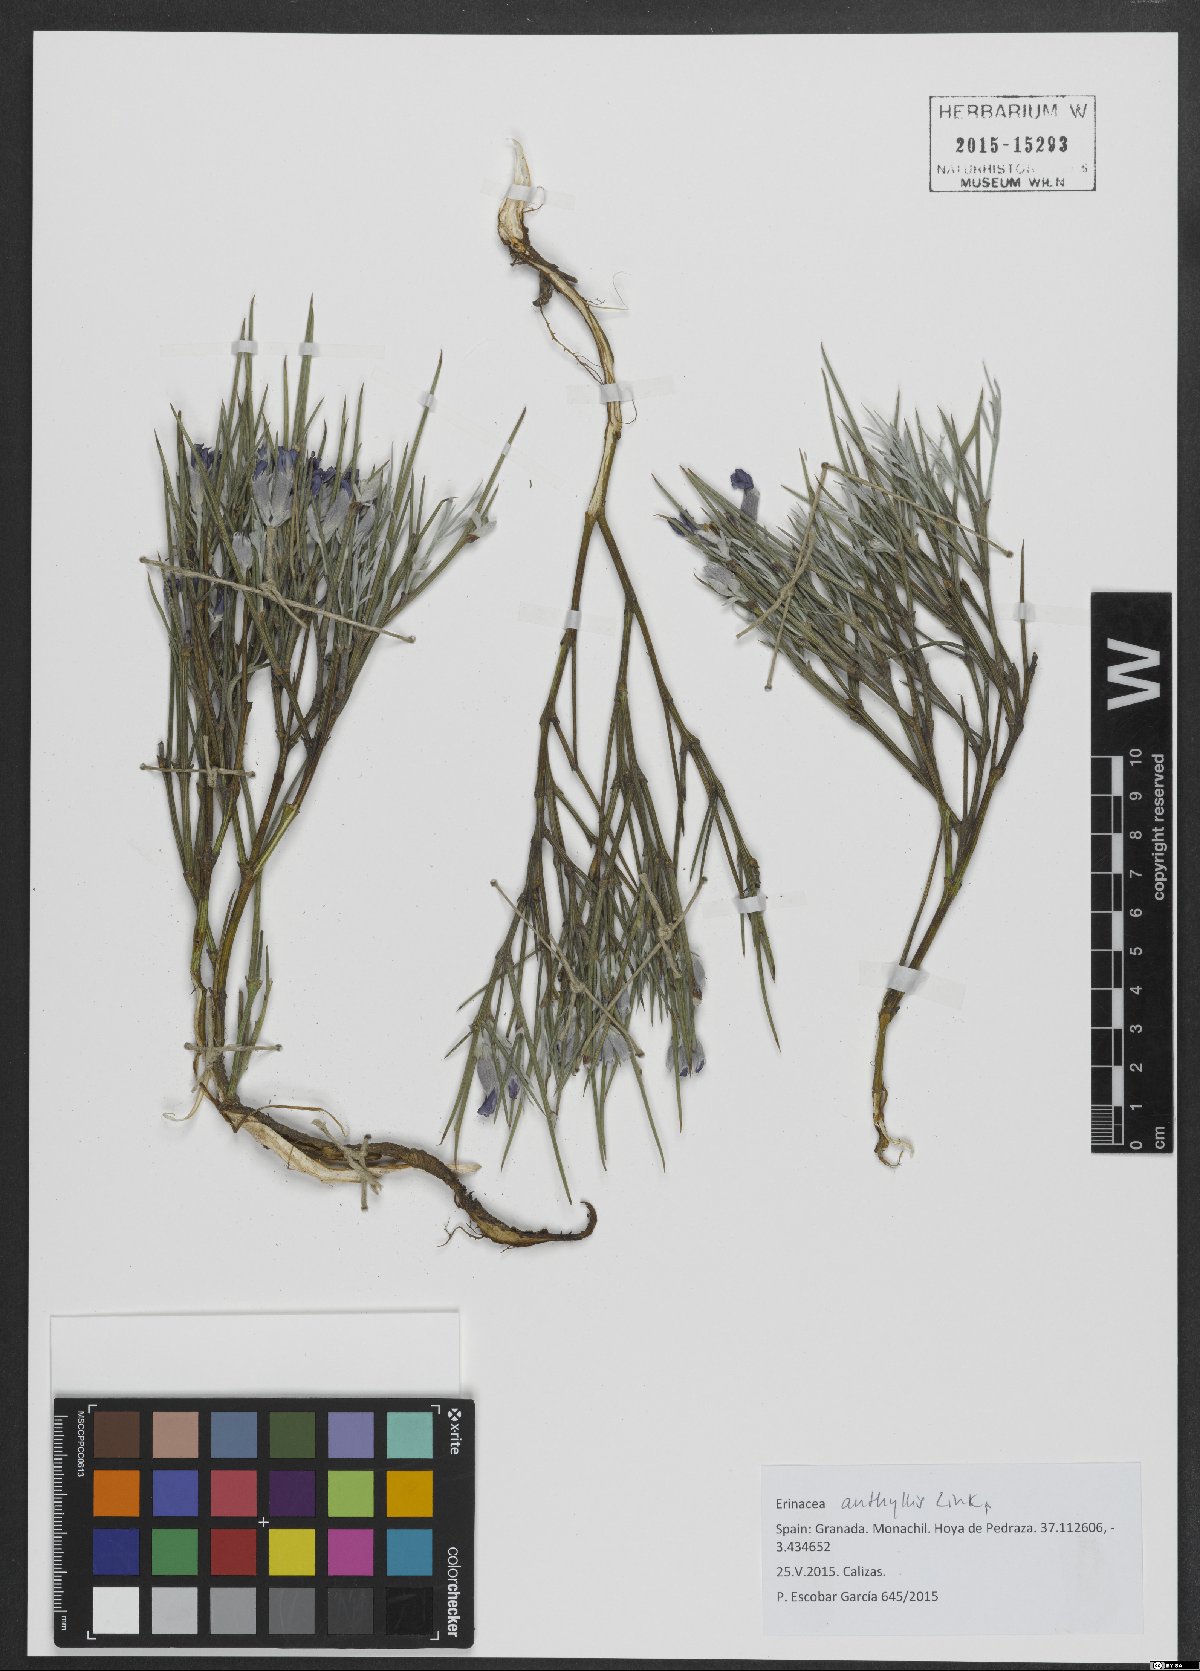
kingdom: Plantae
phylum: Tracheophyta
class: Magnoliopsida
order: Fabales
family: Fabaceae
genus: Erinacea
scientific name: Erinacea anthyllis
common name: Hedgehog-broom
